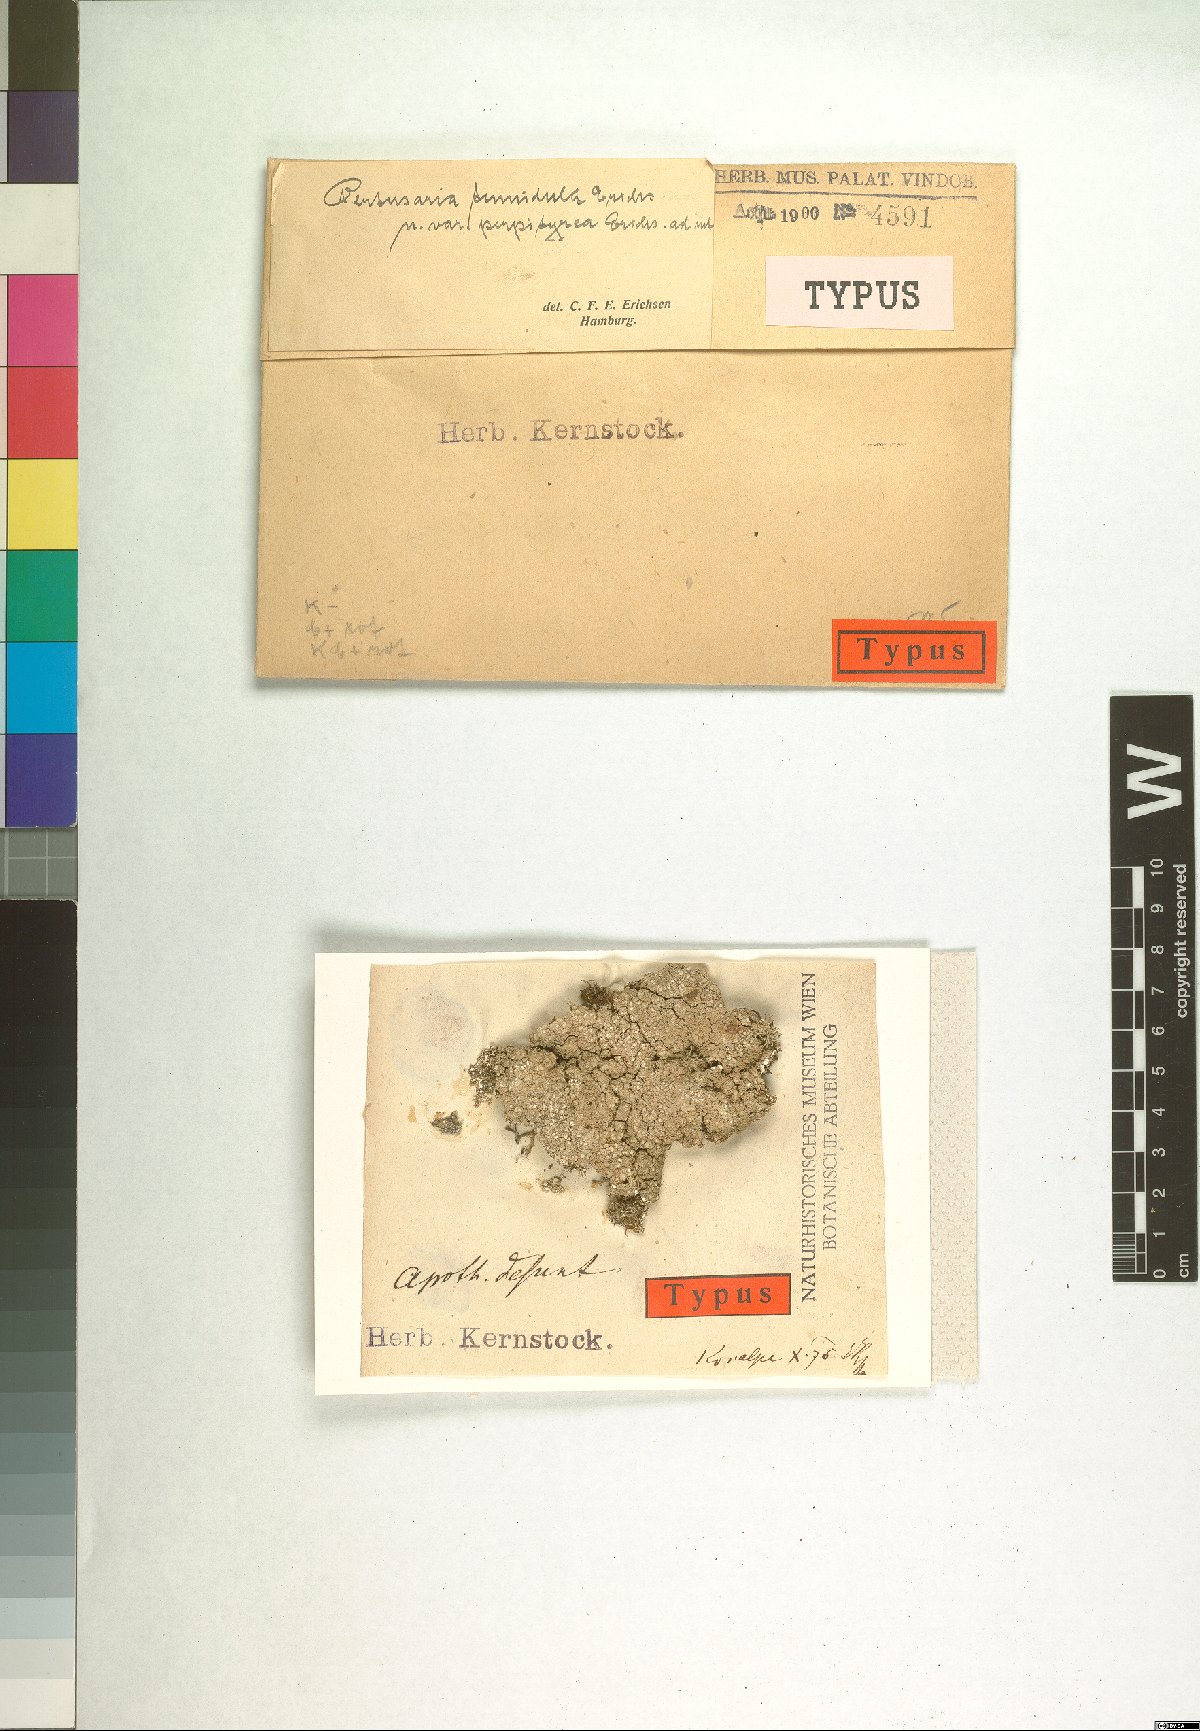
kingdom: Fungi
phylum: Ascomycota
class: Lecanoromycetes
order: Pertusariales
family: Ochrolechiaceae
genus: Ochrolechia
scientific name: Ochrolechia tartarea
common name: Cudbear
